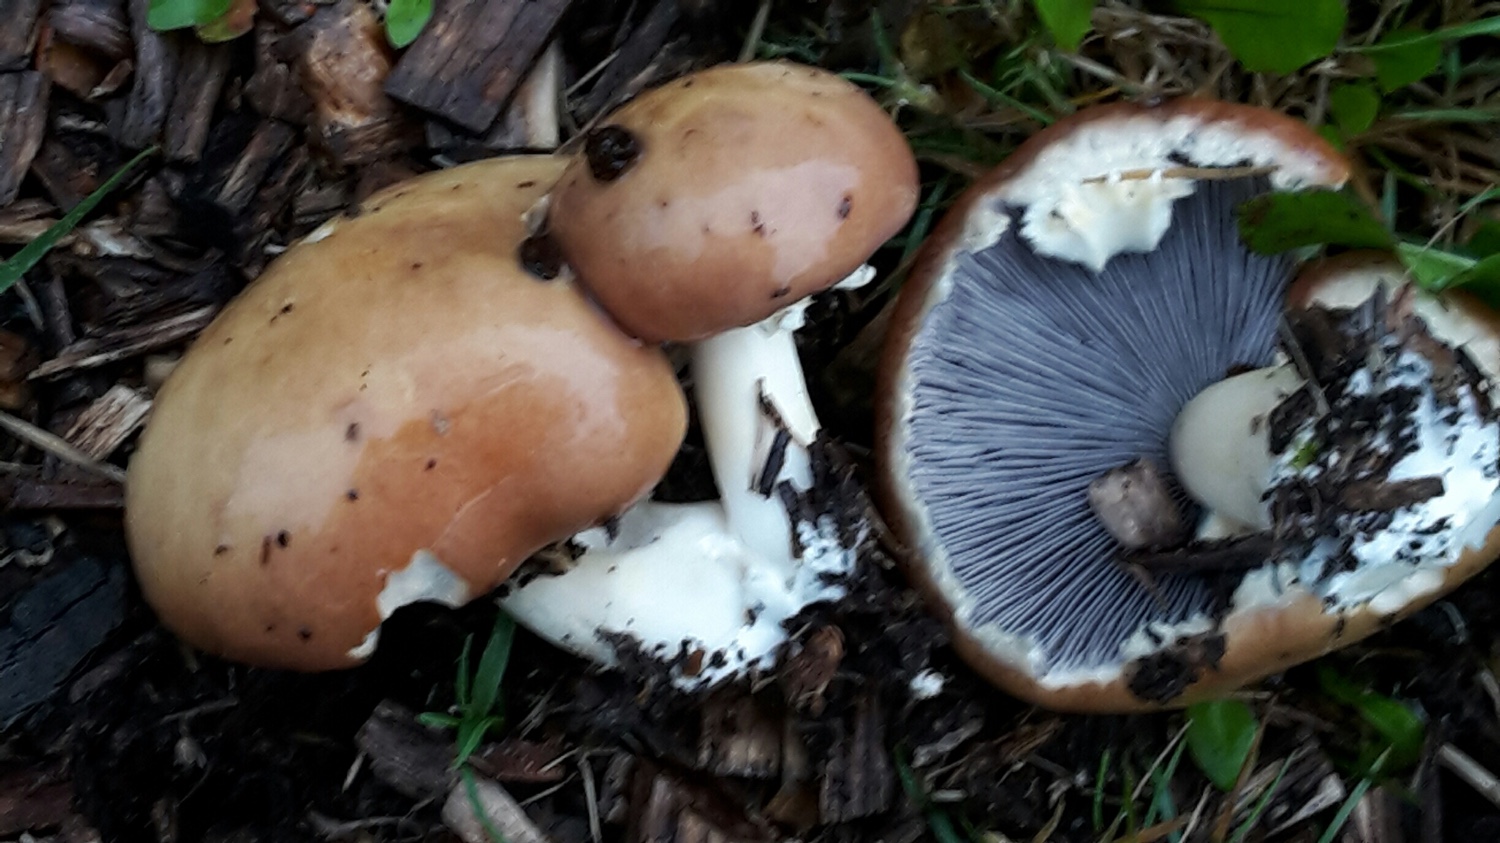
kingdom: Fungi
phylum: Basidiomycota
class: Agaricomycetes
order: Agaricales
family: Strophariaceae
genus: Stropharia
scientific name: Stropharia rugosoannulata
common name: rødbrun bredblad
